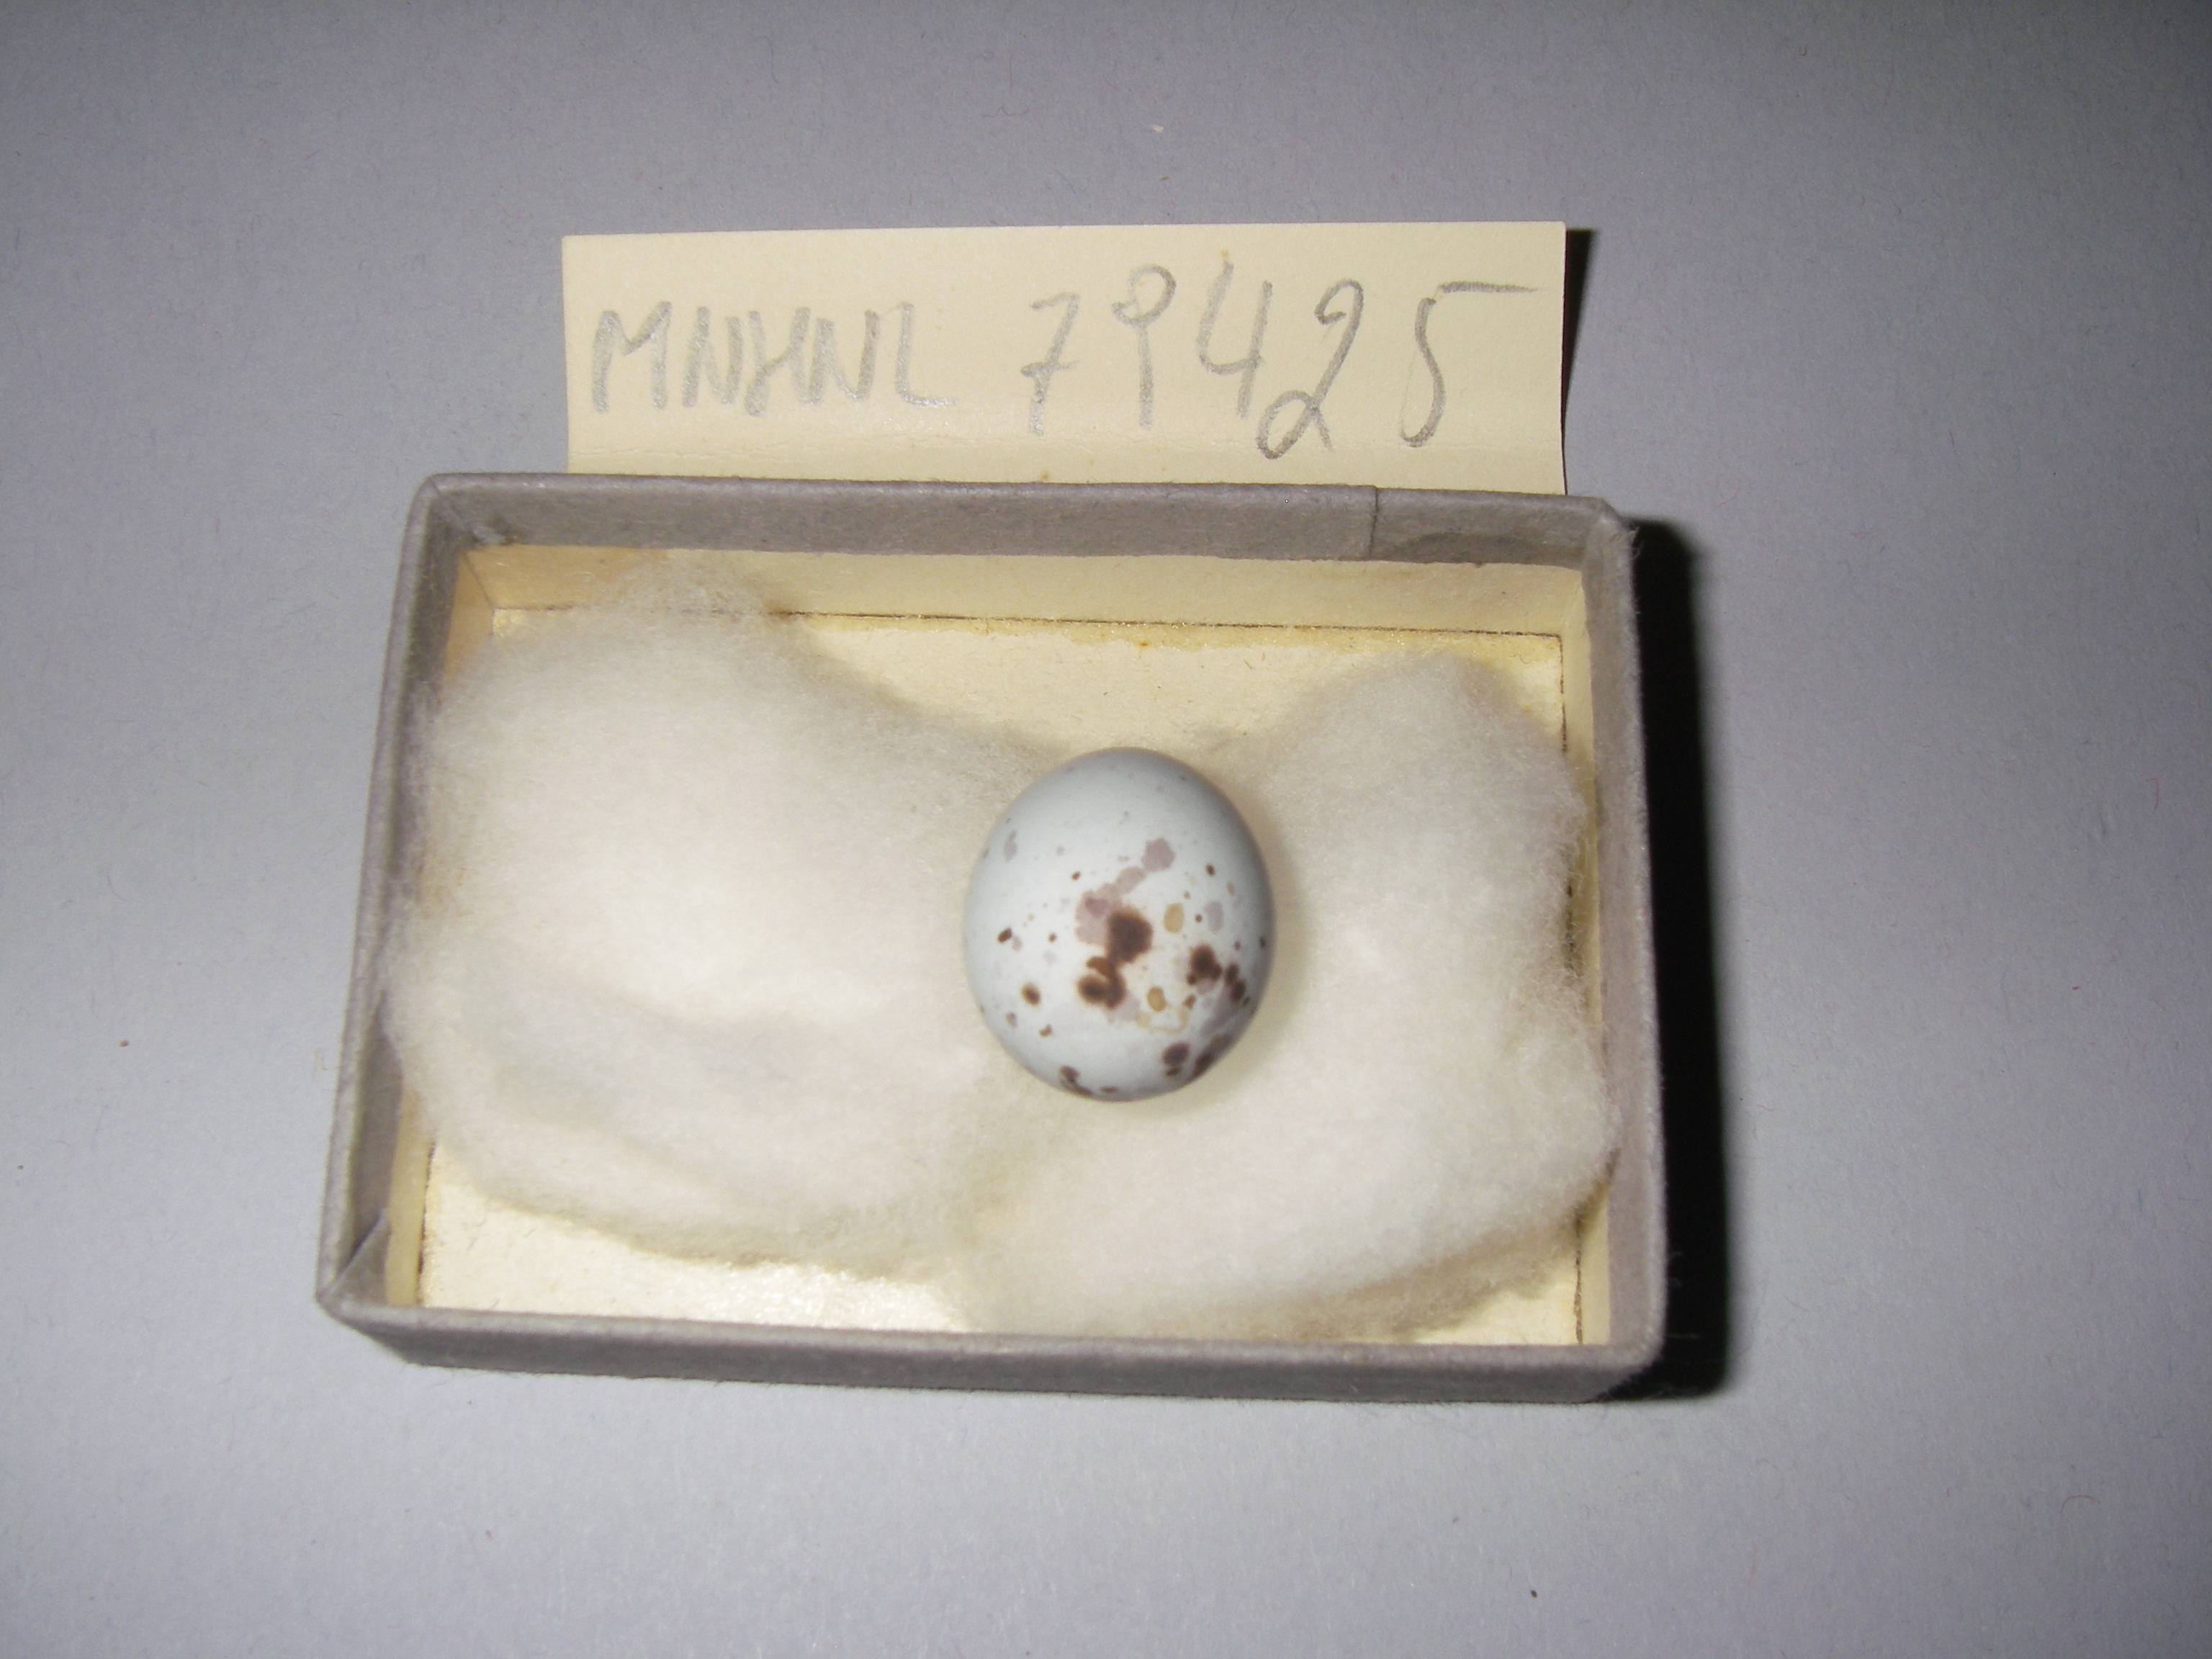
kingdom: Animalia
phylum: Chordata
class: Aves
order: Passeriformes
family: Fringillidae
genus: Pyrrhula
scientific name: Pyrrhula pyrrhula
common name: Eurasian bullfinch
